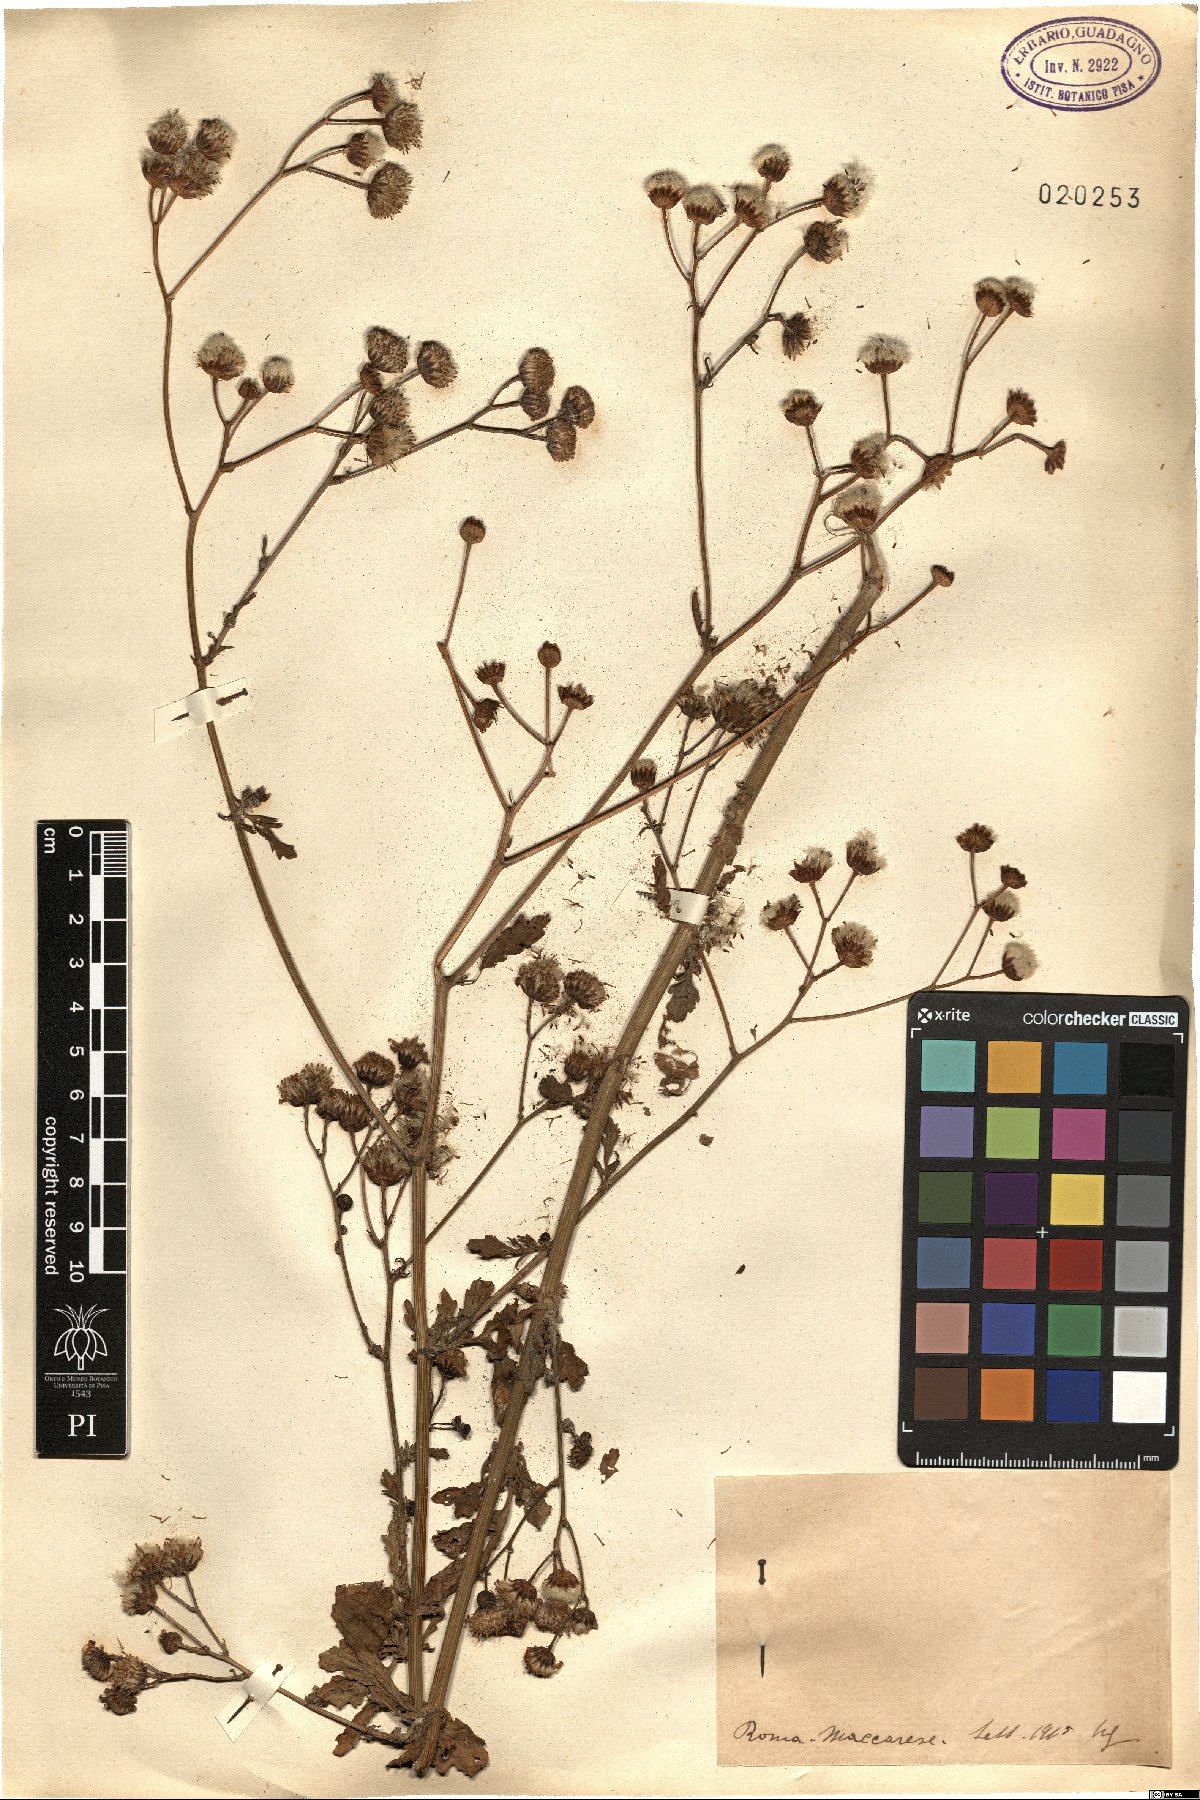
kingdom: Plantae
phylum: Tracheophyta
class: Magnoliopsida
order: Asterales
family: Asteraceae
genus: Senecio
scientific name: Senecio
